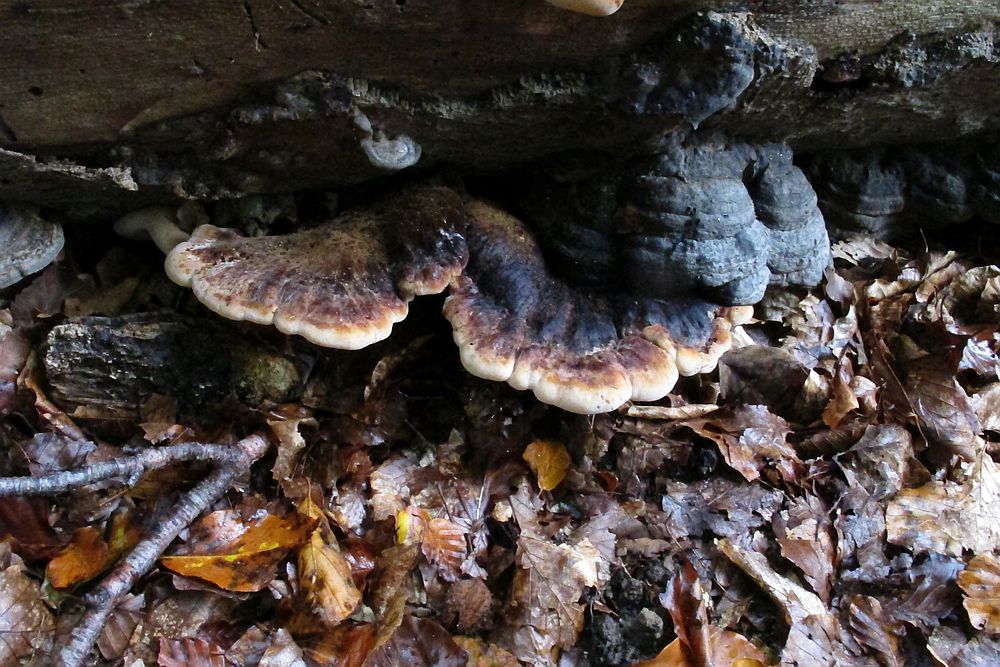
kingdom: Fungi
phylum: Basidiomycota
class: Agaricomycetes
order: Polyporales
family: Ischnodermataceae
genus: Ischnoderma
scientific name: Ischnoderma resinosum
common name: løv-tjæreporesvamp
